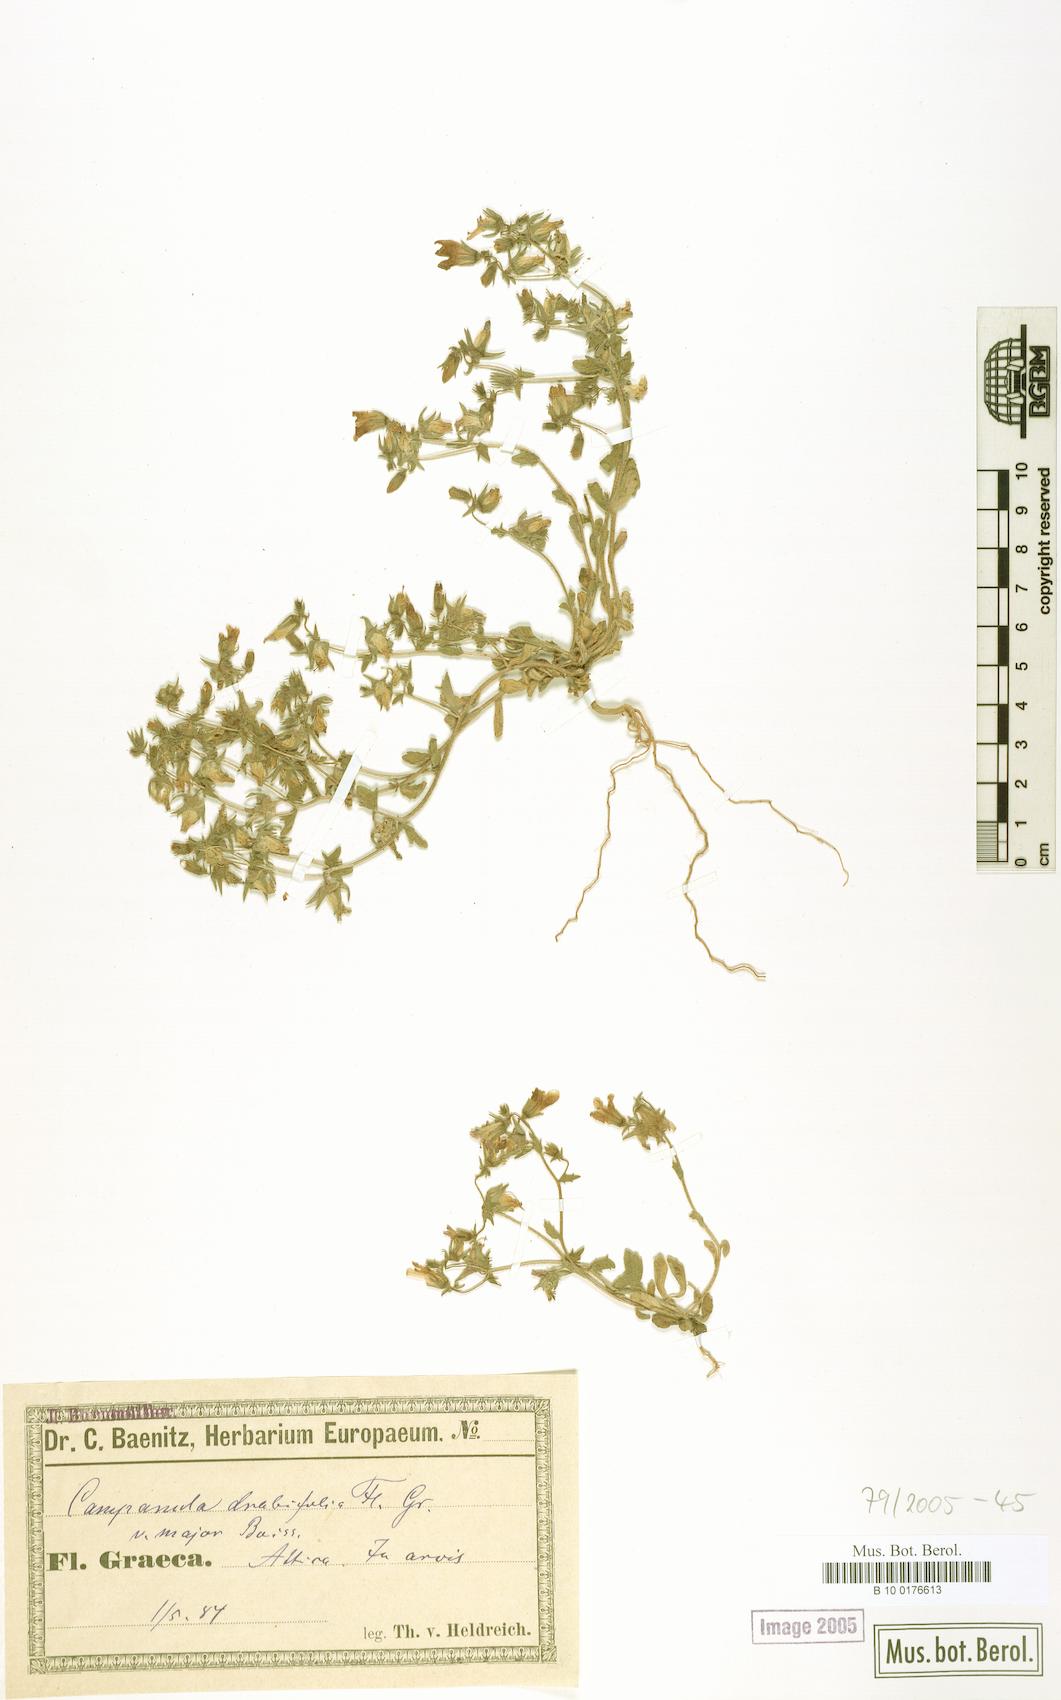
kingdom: Plantae
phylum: Tracheophyta
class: Magnoliopsida
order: Asterales
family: Campanulaceae
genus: Campanula
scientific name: Campanula drabifolia
